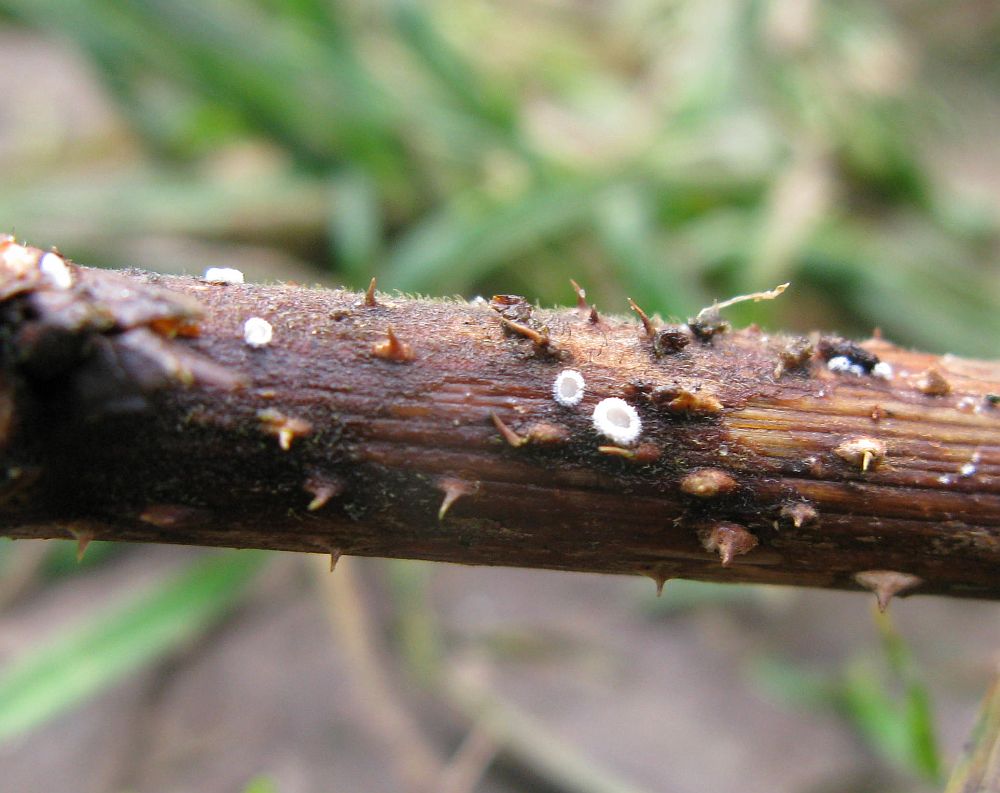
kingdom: Fungi
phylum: Basidiomycota
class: Agaricomycetes
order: Agaricales
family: Niaceae
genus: Lachnella
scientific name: Lachnella villosa
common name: hvid frynserede
